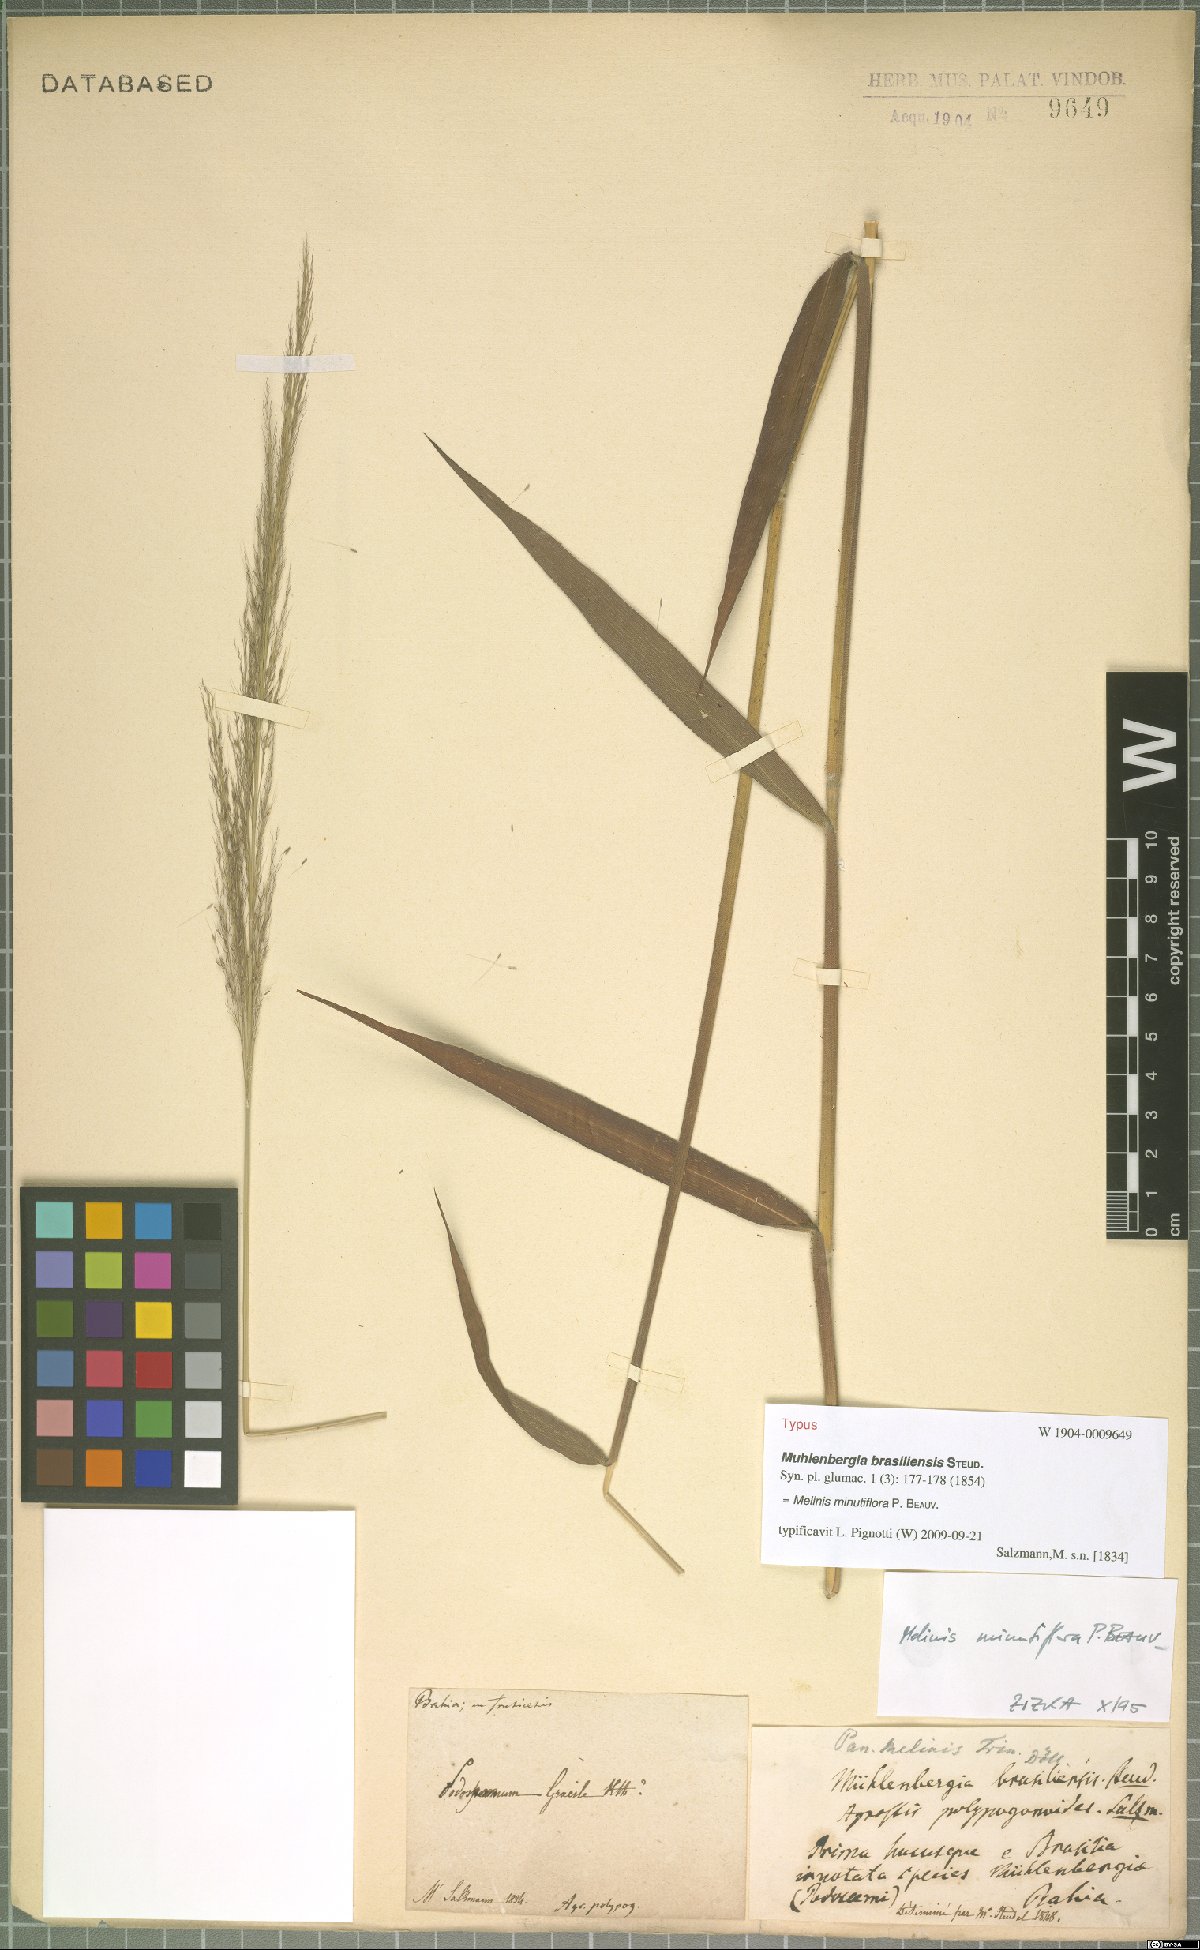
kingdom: Plantae
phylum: Tracheophyta
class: Liliopsida
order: Poales
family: Poaceae
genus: Melinis
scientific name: Melinis minutiflora
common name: Molassesgrass
